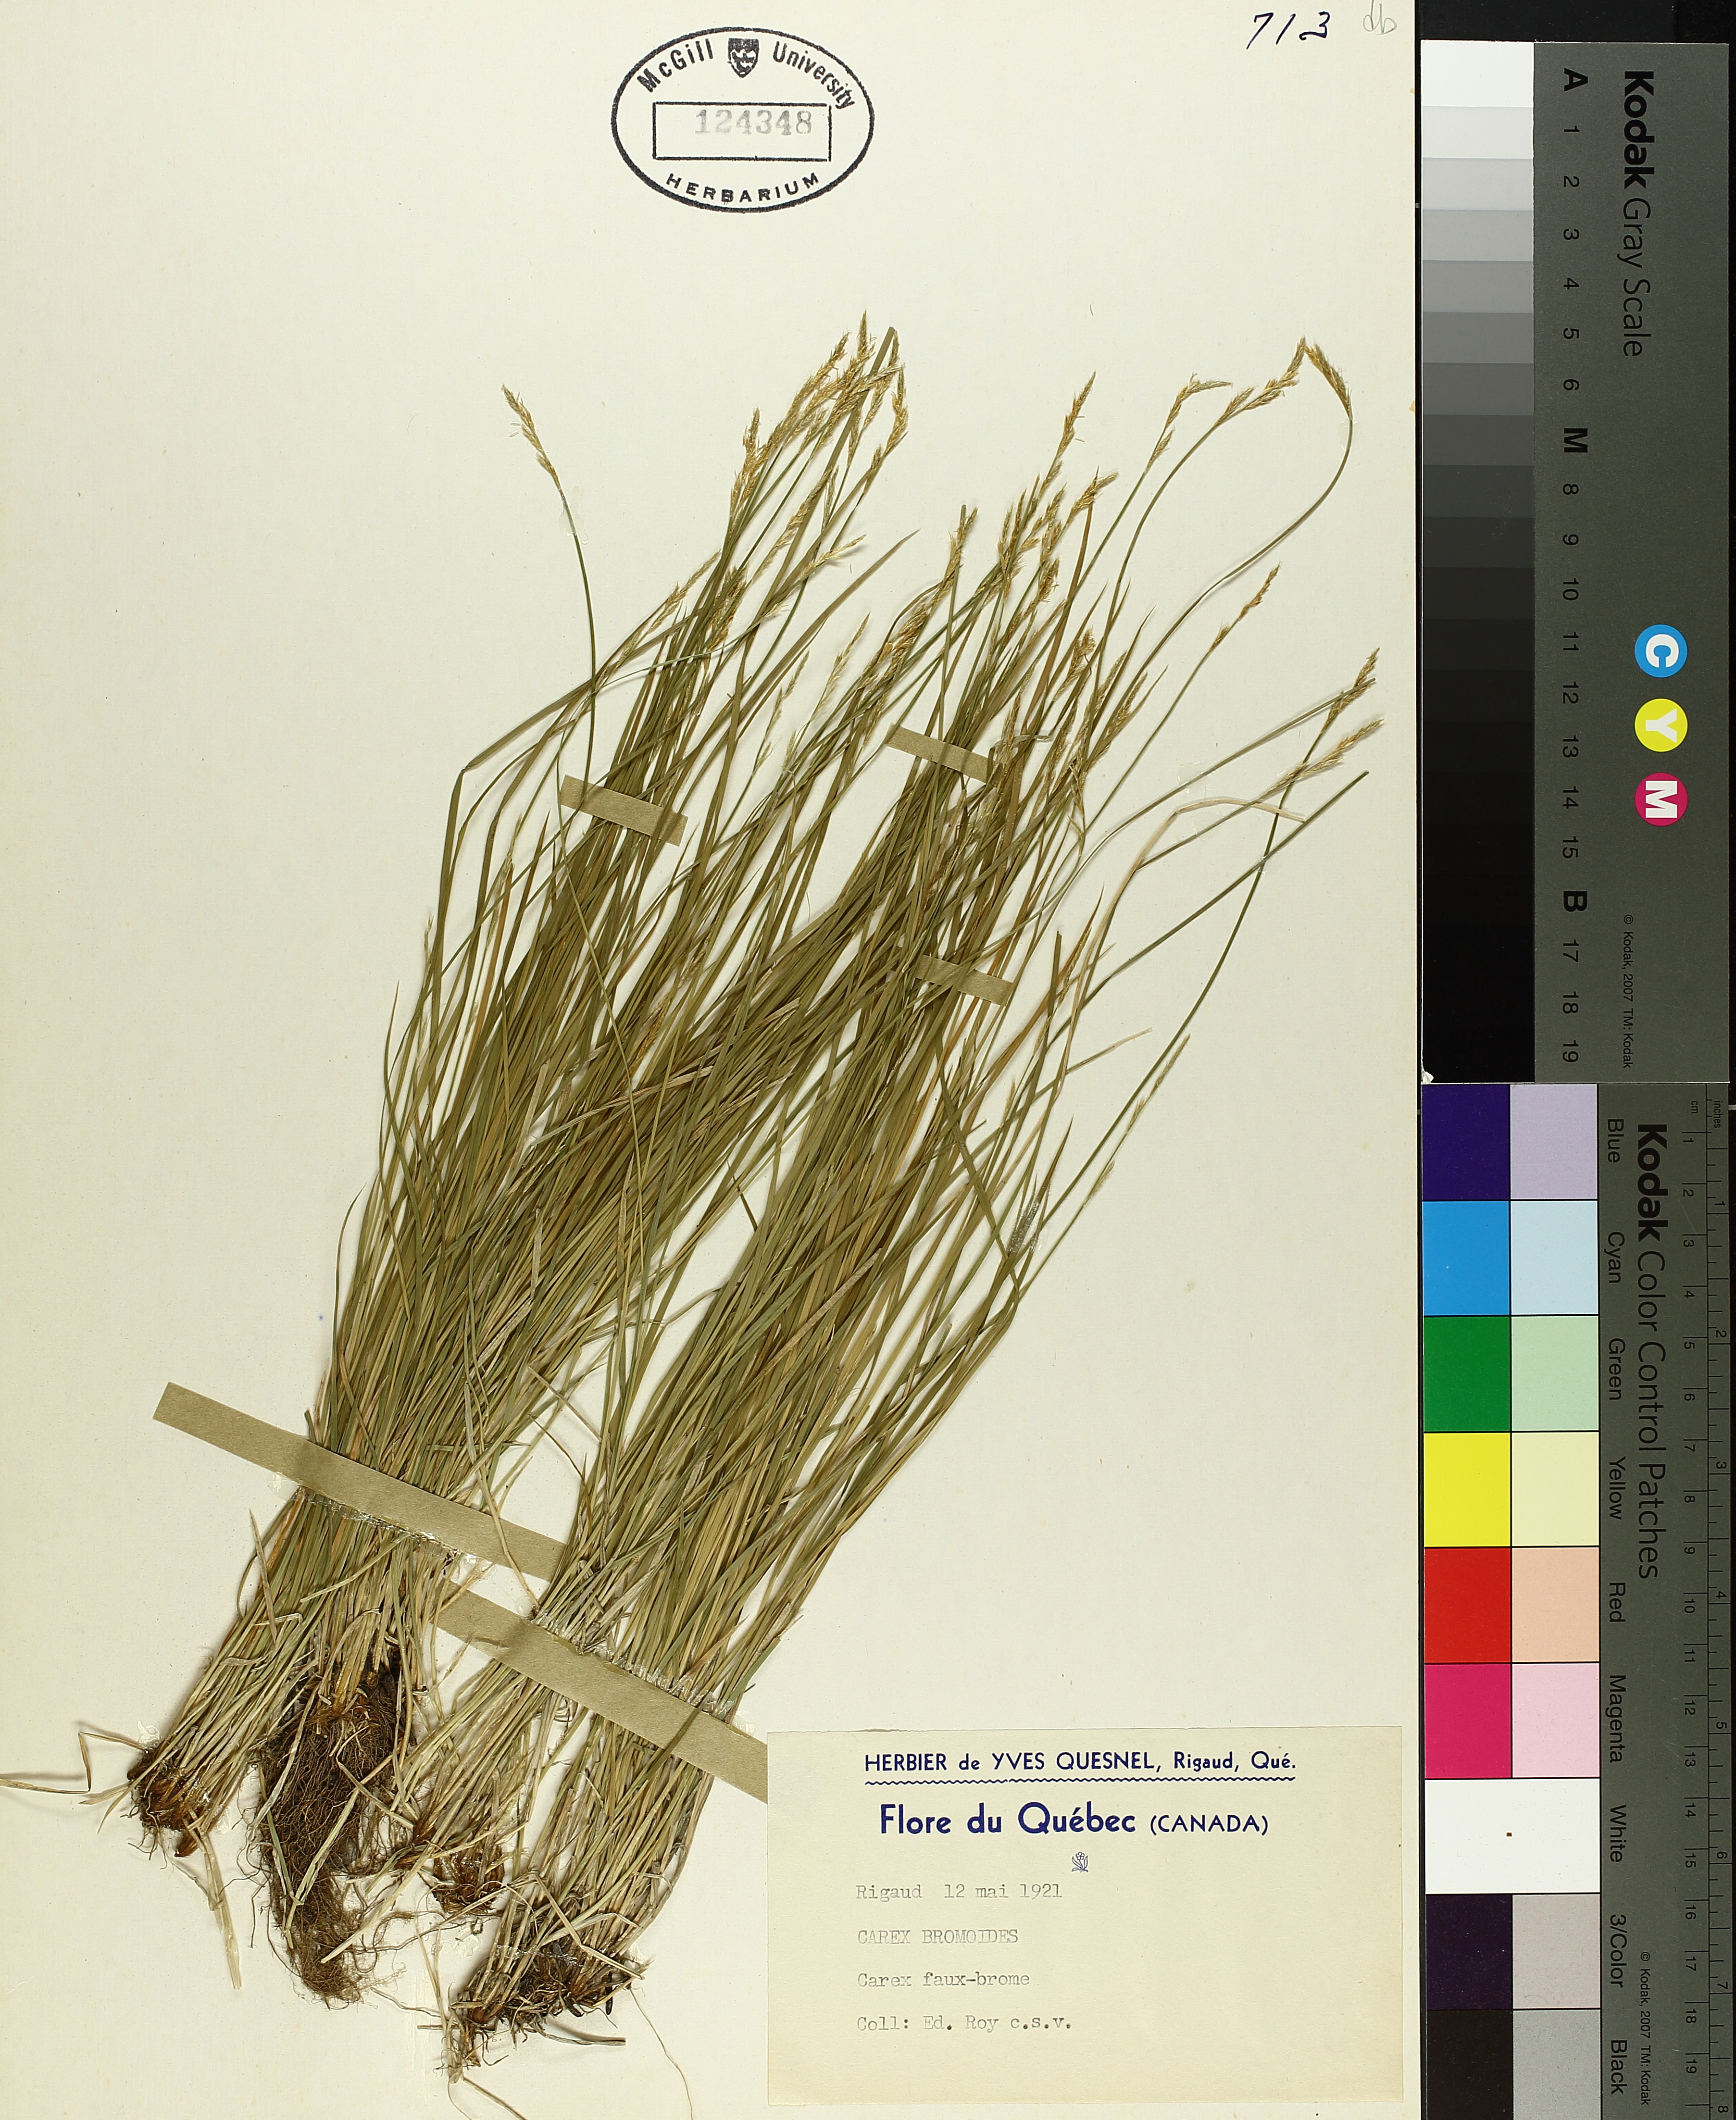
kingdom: Plantae
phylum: Tracheophyta
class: Liliopsida
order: Poales
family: Cyperaceae
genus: Carex
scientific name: Carex bromoides
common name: Brome hummock sedge
